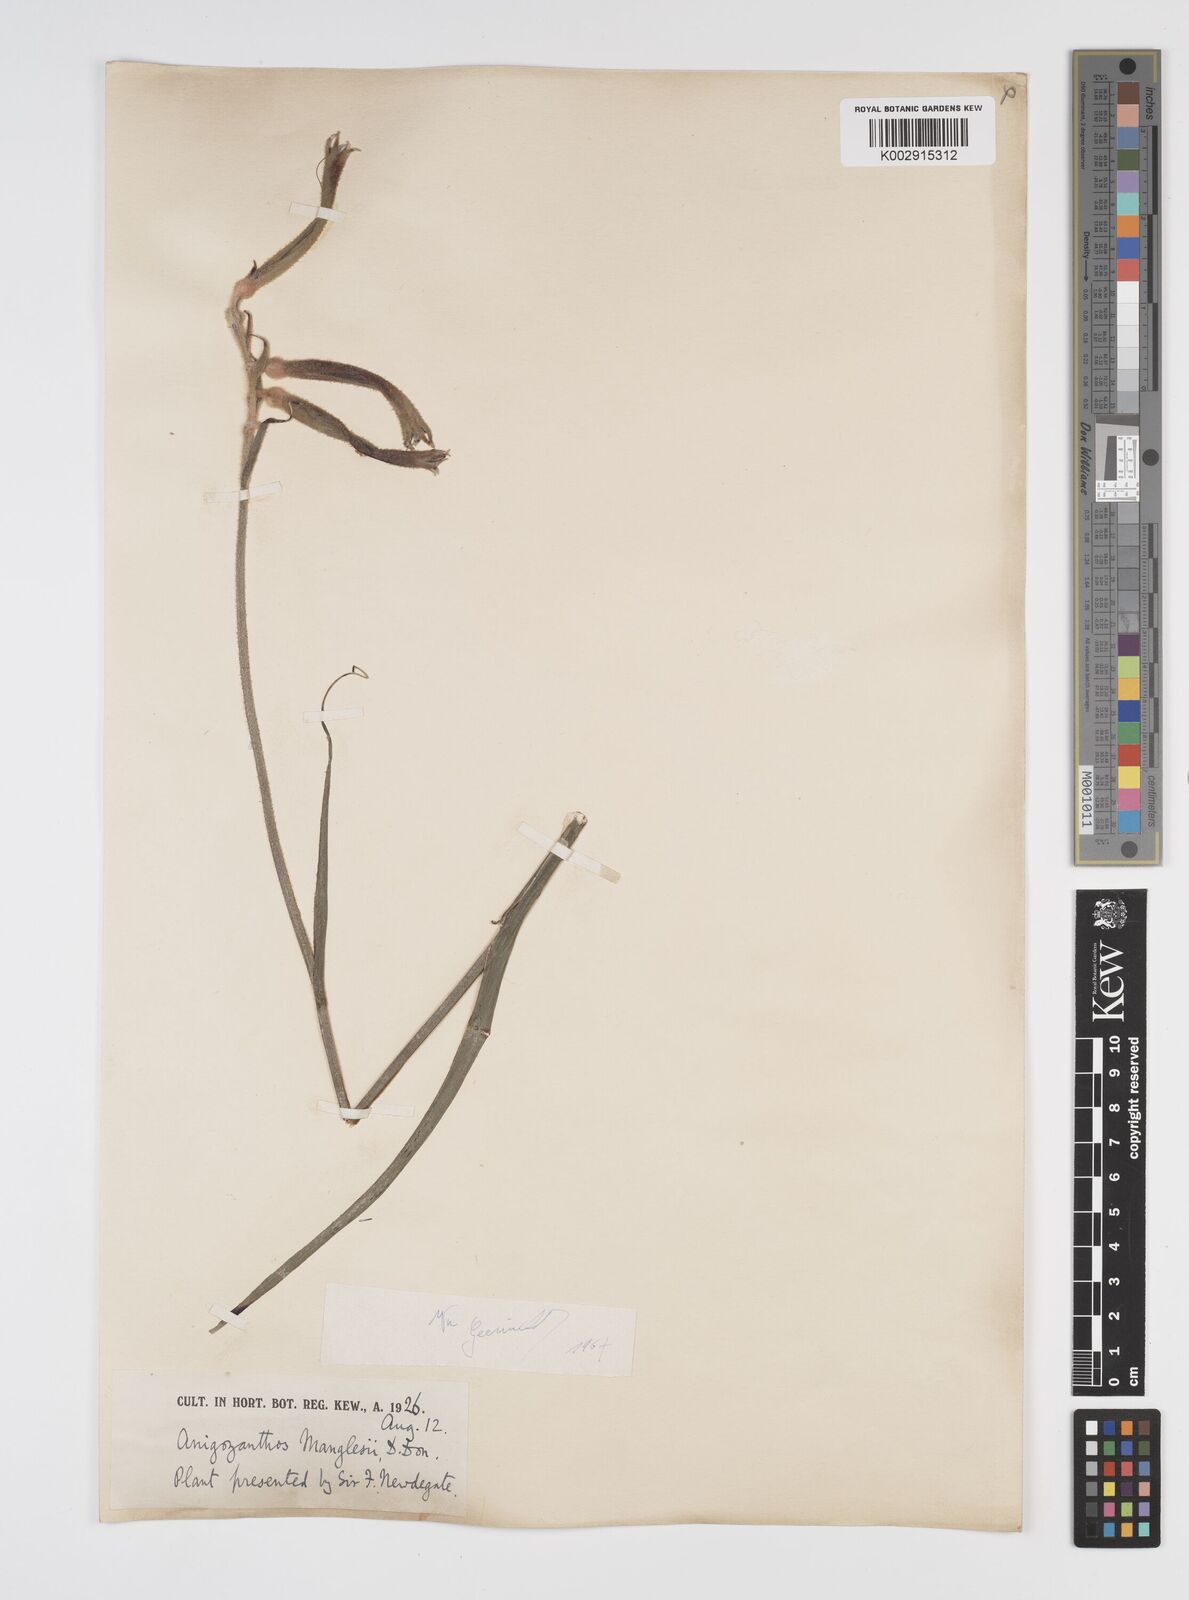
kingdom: Plantae
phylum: Tracheophyta
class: Liliopsida
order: Commelinales
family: Haemodoraceae
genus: Anigozanthos
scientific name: Anigozanthos manglesii
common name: Mangles's kangaroo-paw
